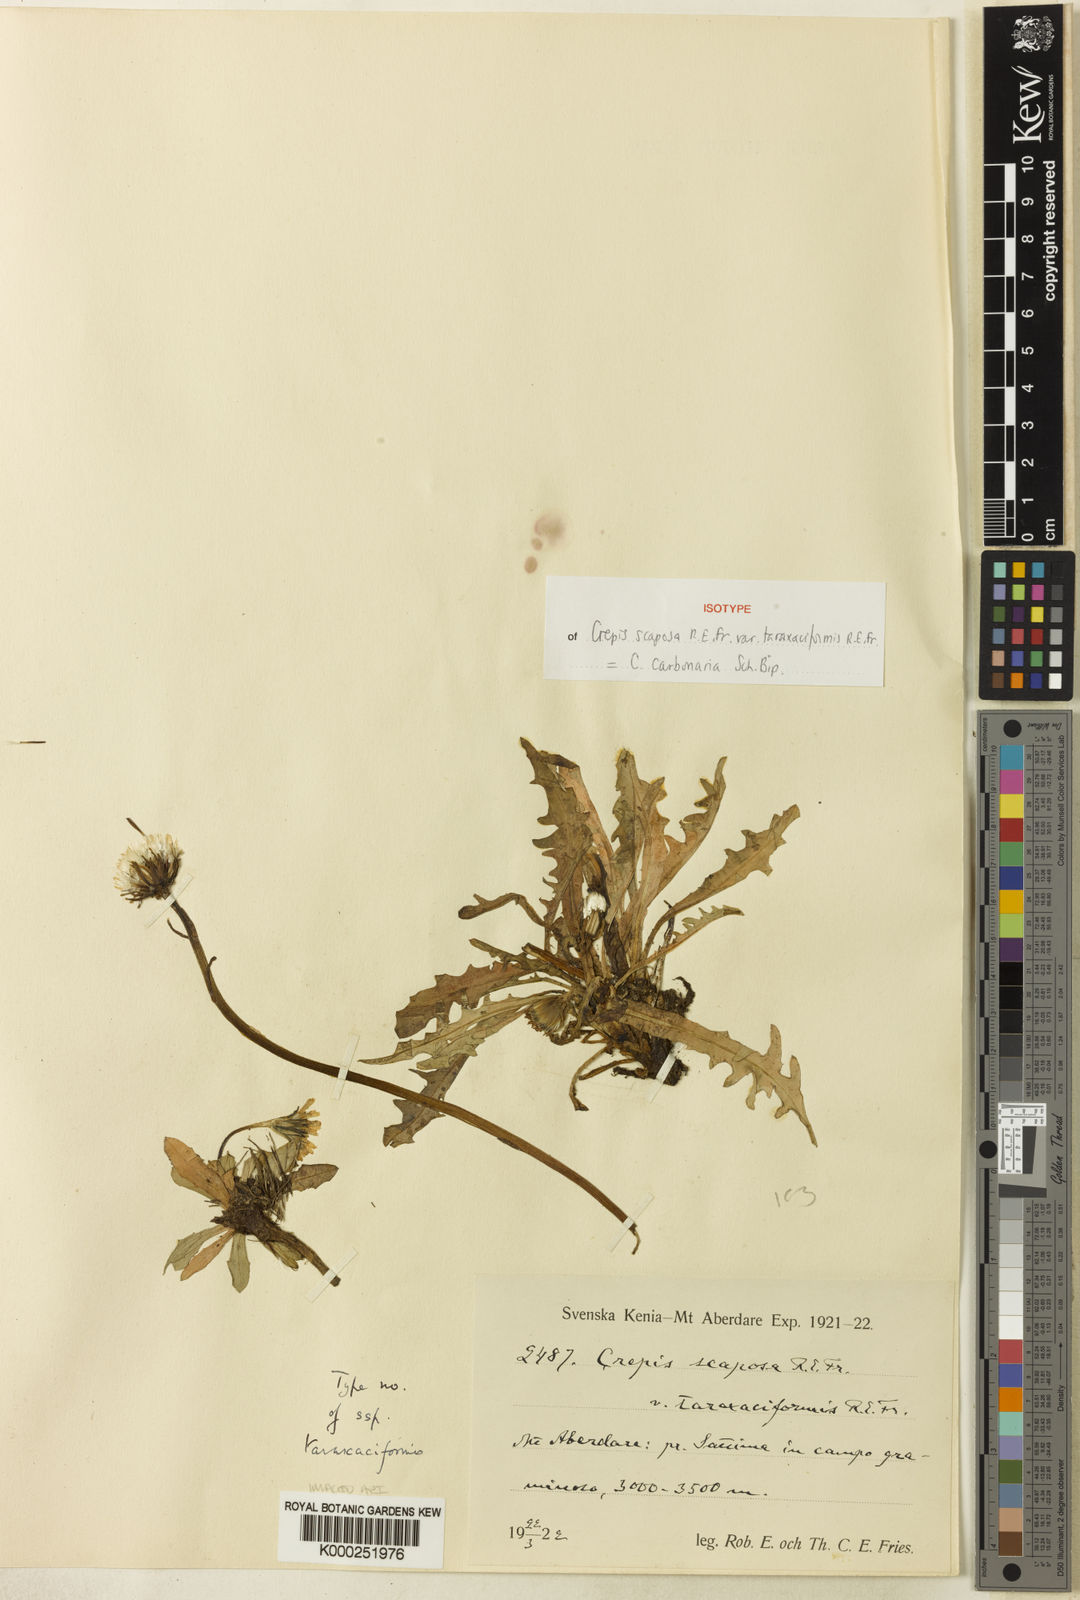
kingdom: Plantae
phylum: Tracheophyta
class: Magnoliopsida
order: Asterales
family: Asteraceae
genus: Crepis
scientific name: Crepis carbonaria
